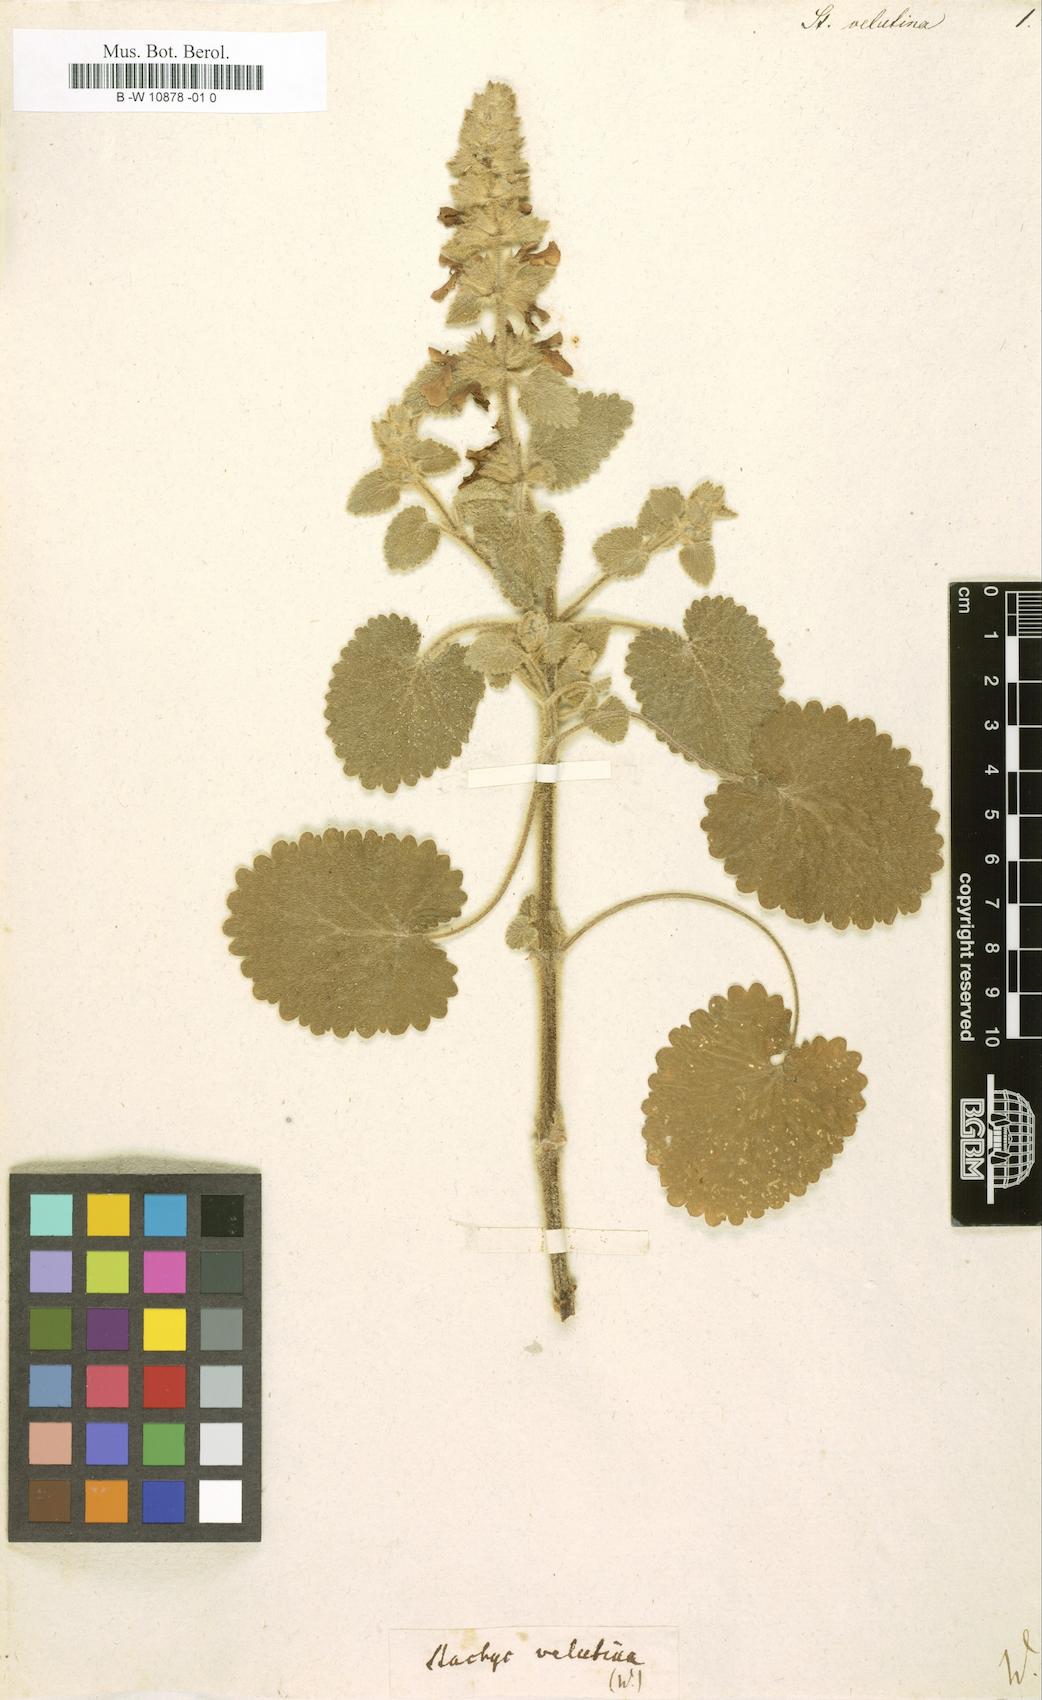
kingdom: Plantae
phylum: Tracheophyta
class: Magnoliopsida
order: Lamiales
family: Lamiaceae
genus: Stachys
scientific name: Stachys
